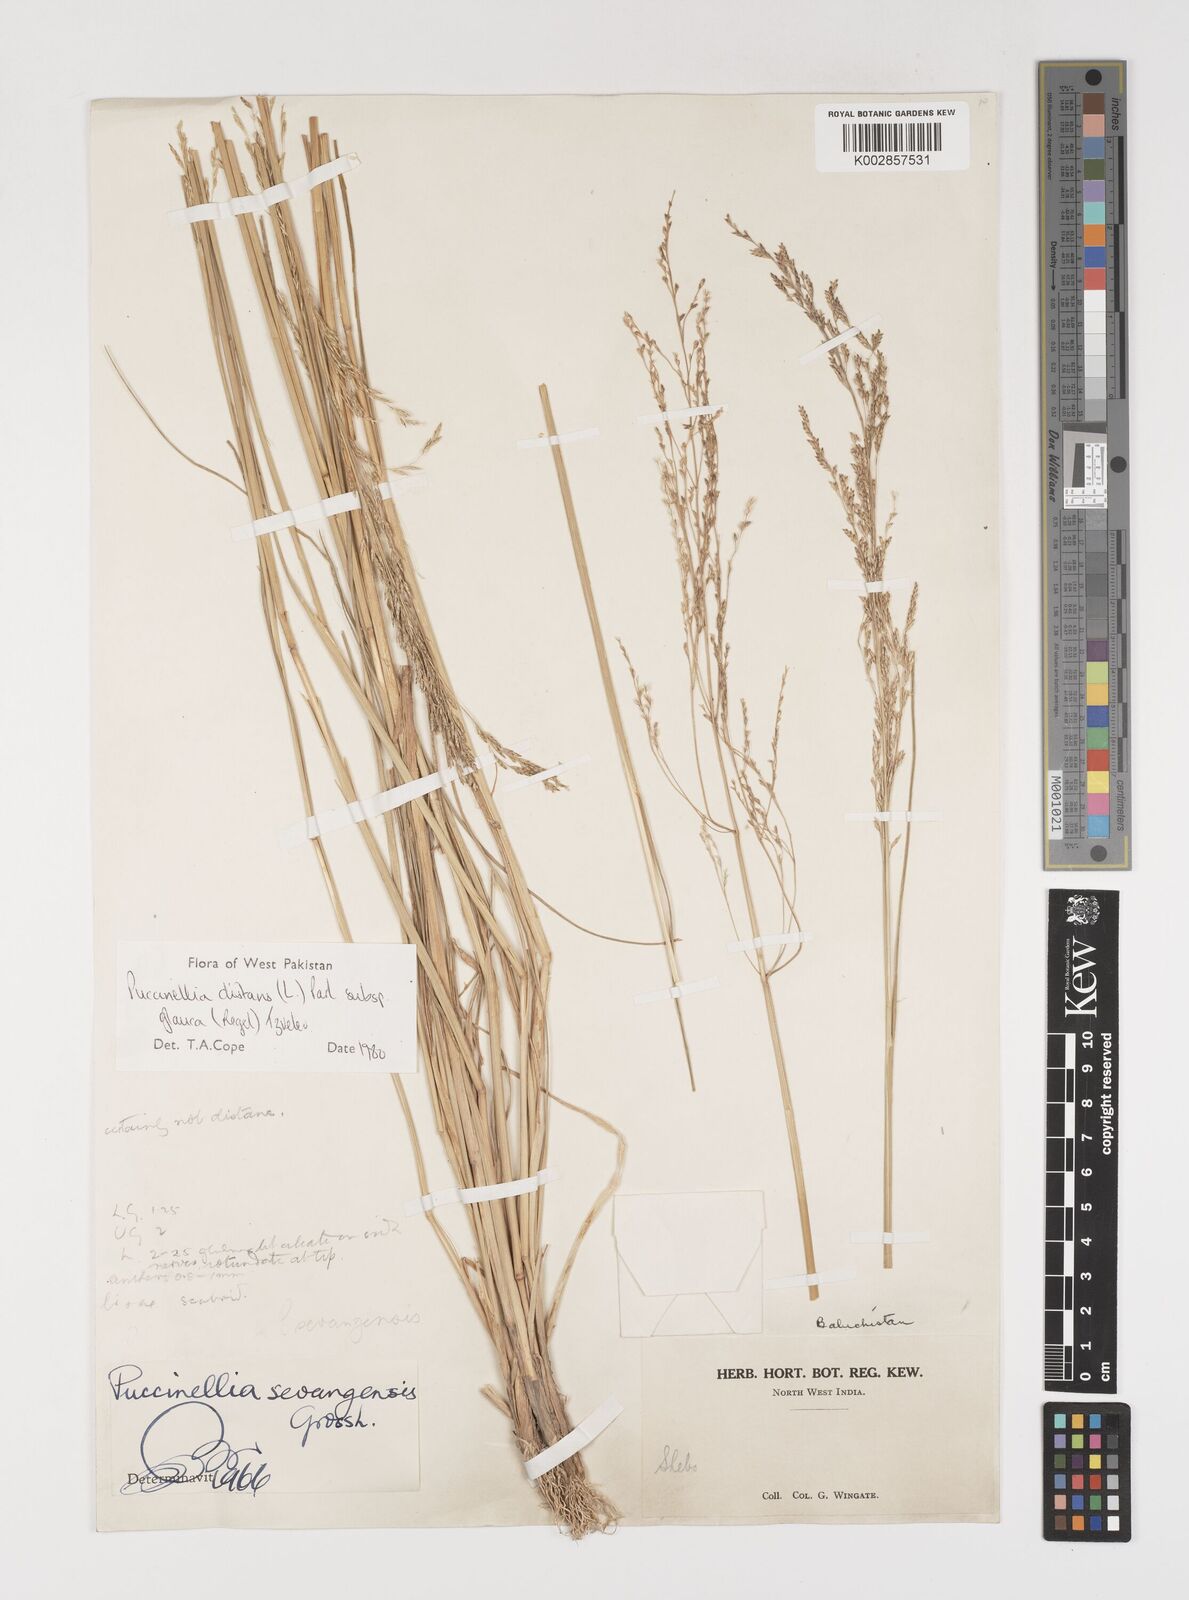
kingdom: Plantae
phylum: Tracheophyta
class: Liliopsida
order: Poales
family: Poaceae
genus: Puccinellia
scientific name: Puccinellia distans
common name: Weeping alkaligrass
